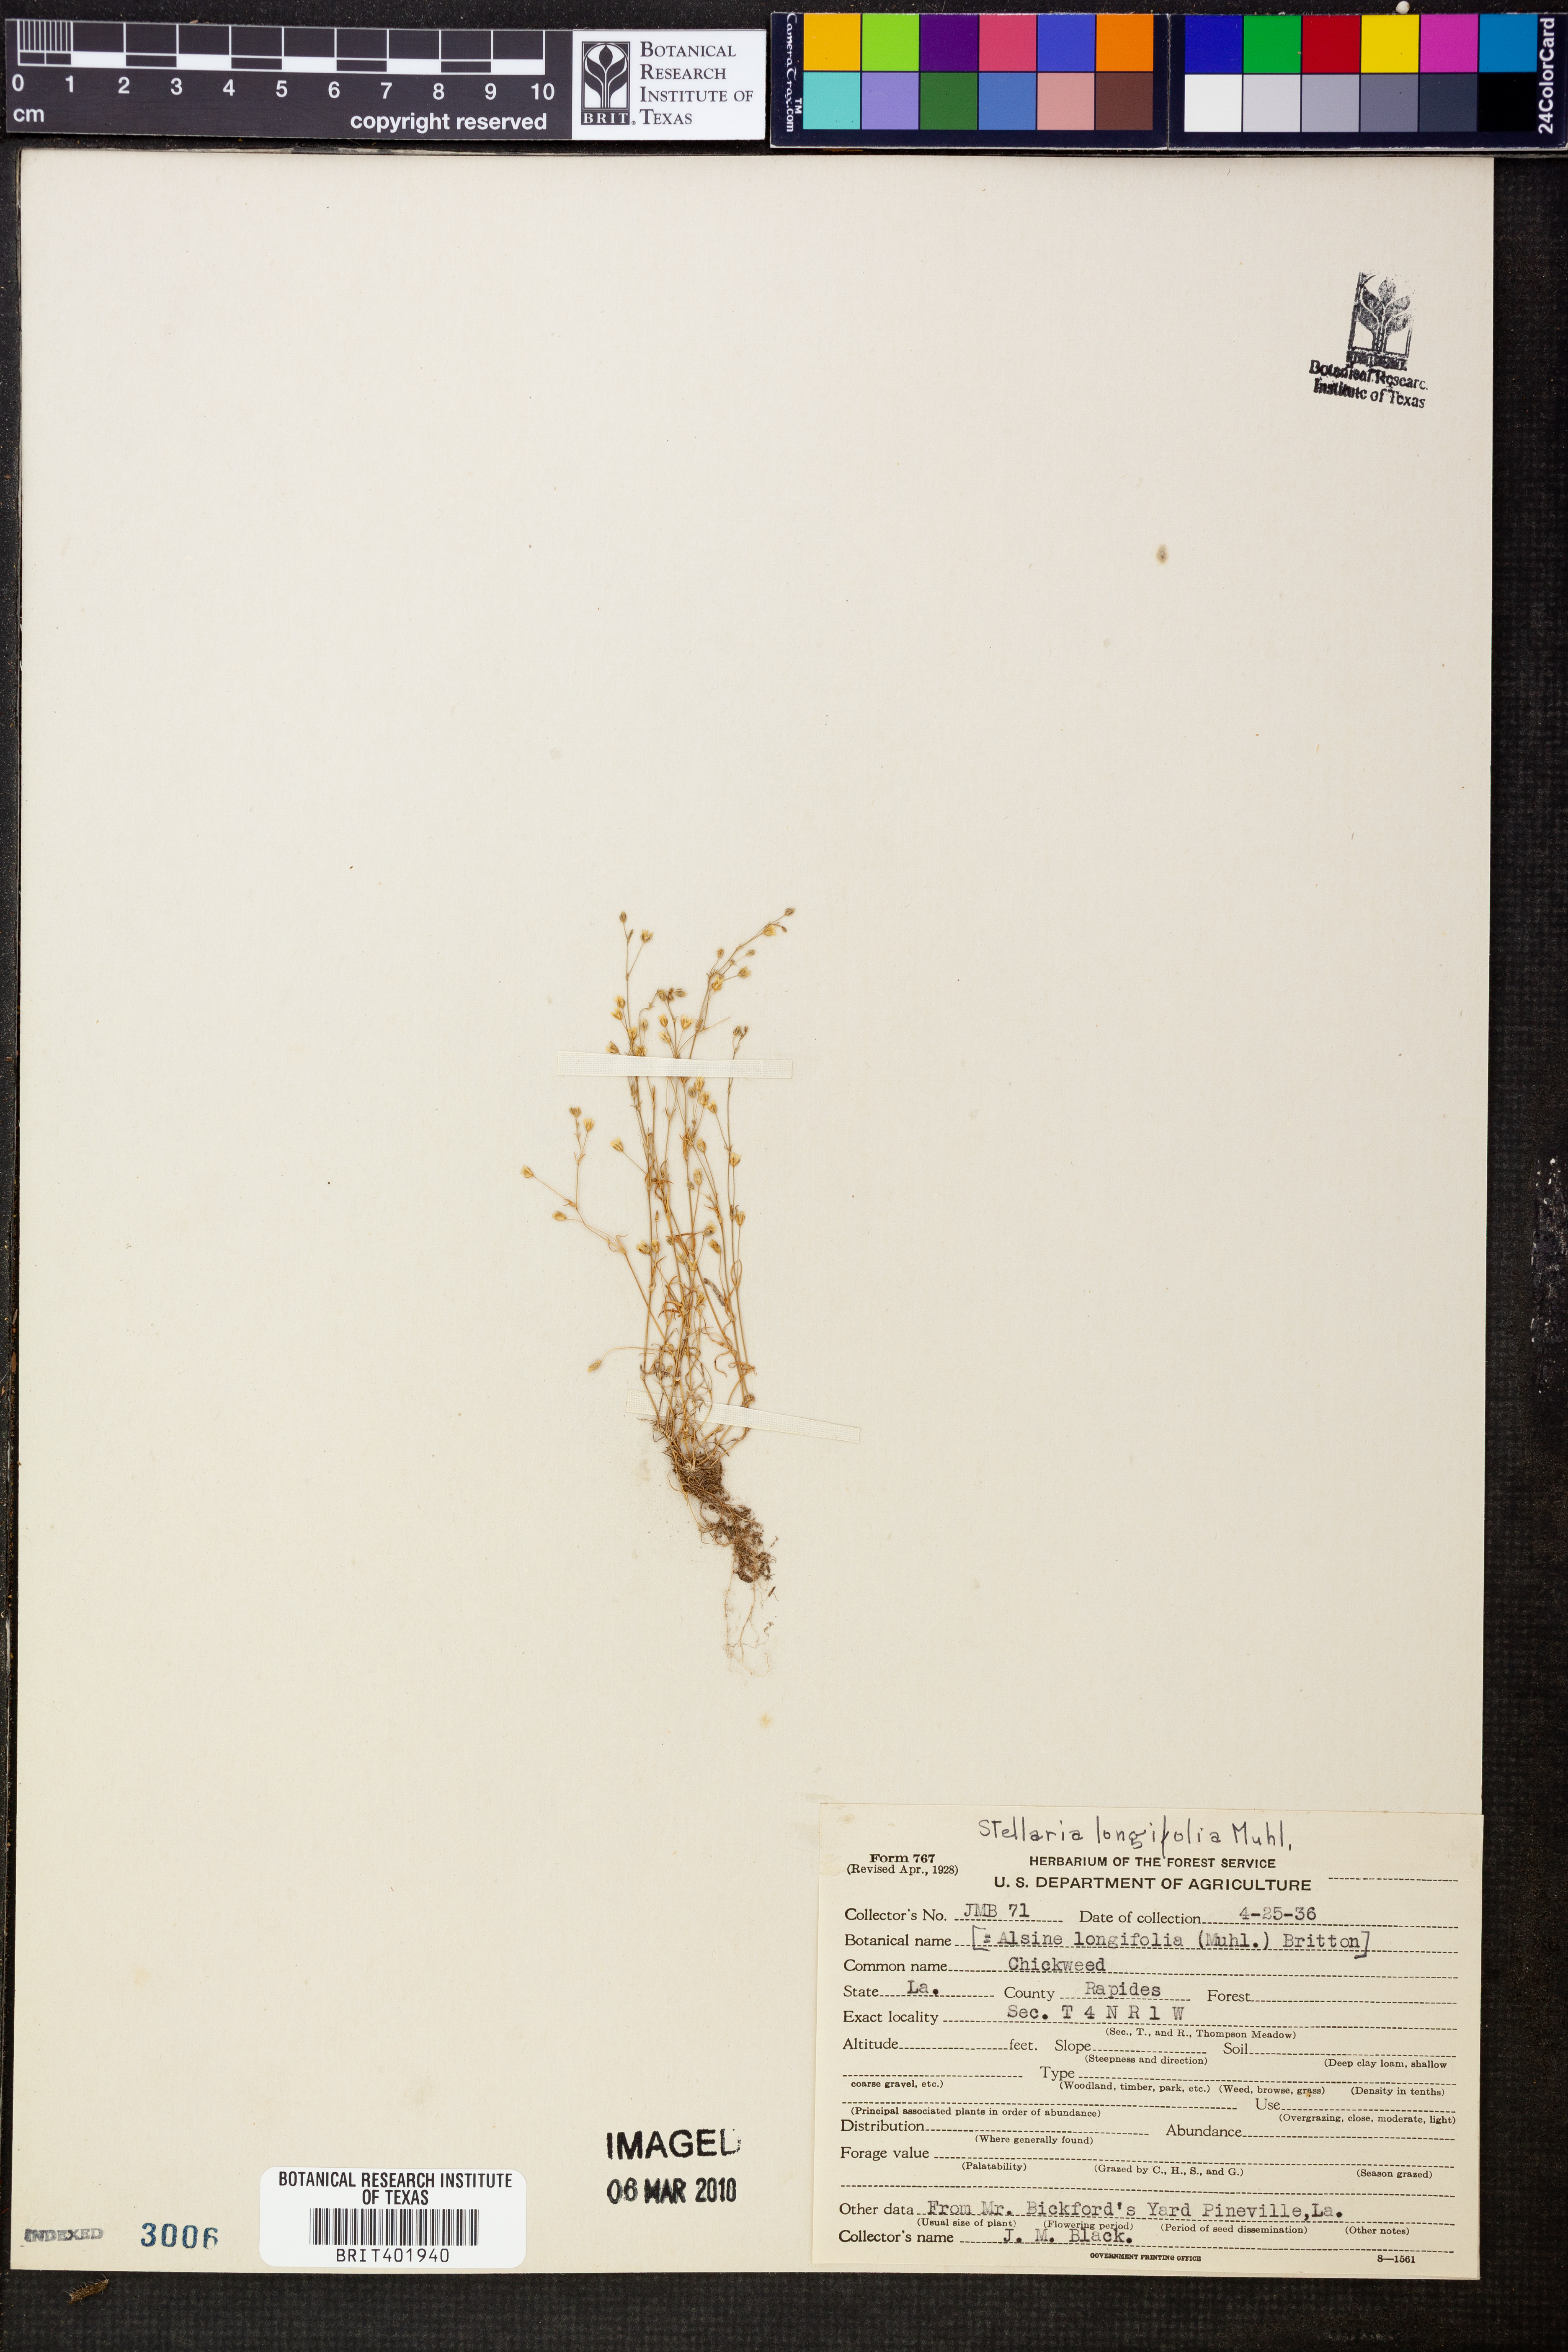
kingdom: Plantae
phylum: Tracheophyta
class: Magnoliopsida
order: Caryophyllales
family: Caryophyllaceae
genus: Stellaria
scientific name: Stellaria longifolia
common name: Long-leaved chickweed
